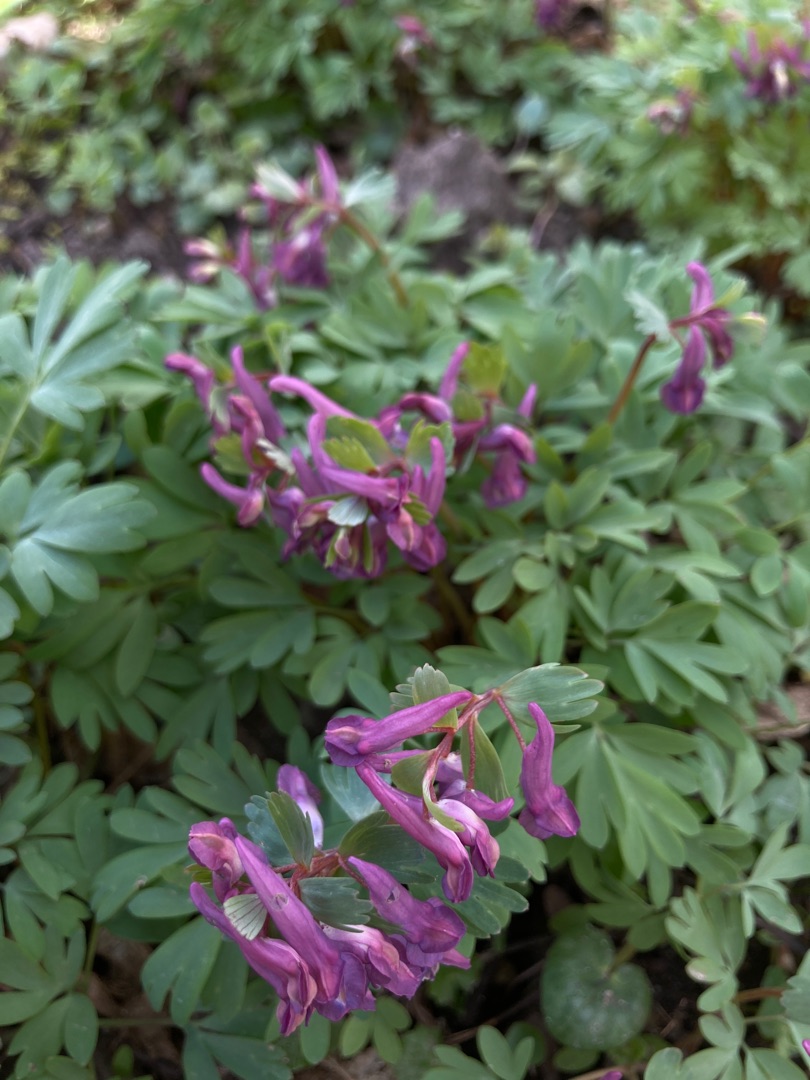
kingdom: Plantae
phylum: Tracheophyta
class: Magnoliopsida
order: Ranunculales
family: Papaveraceae
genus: Corydalis
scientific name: Corydalis solida
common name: Langstilket lærkespore
